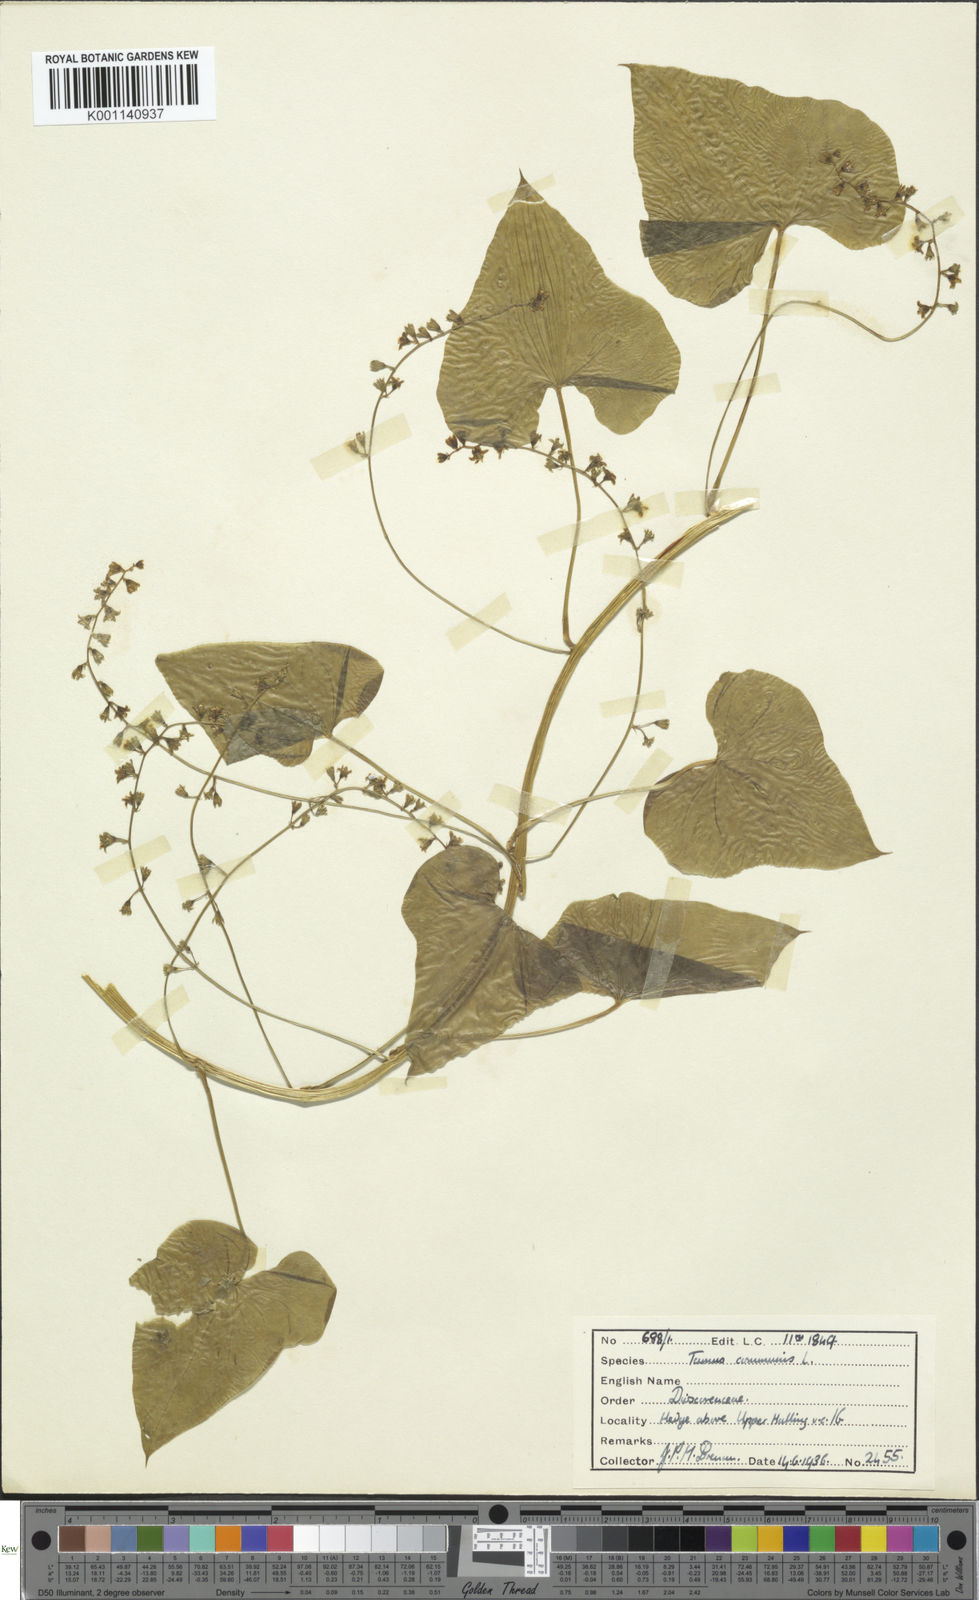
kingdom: Plantae
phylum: Tracheophyta
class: Liliopsida
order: Dioscoreales
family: Dioscoreaceae
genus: Dioscorea
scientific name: Dioscorea communis
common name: Black-bindweed
